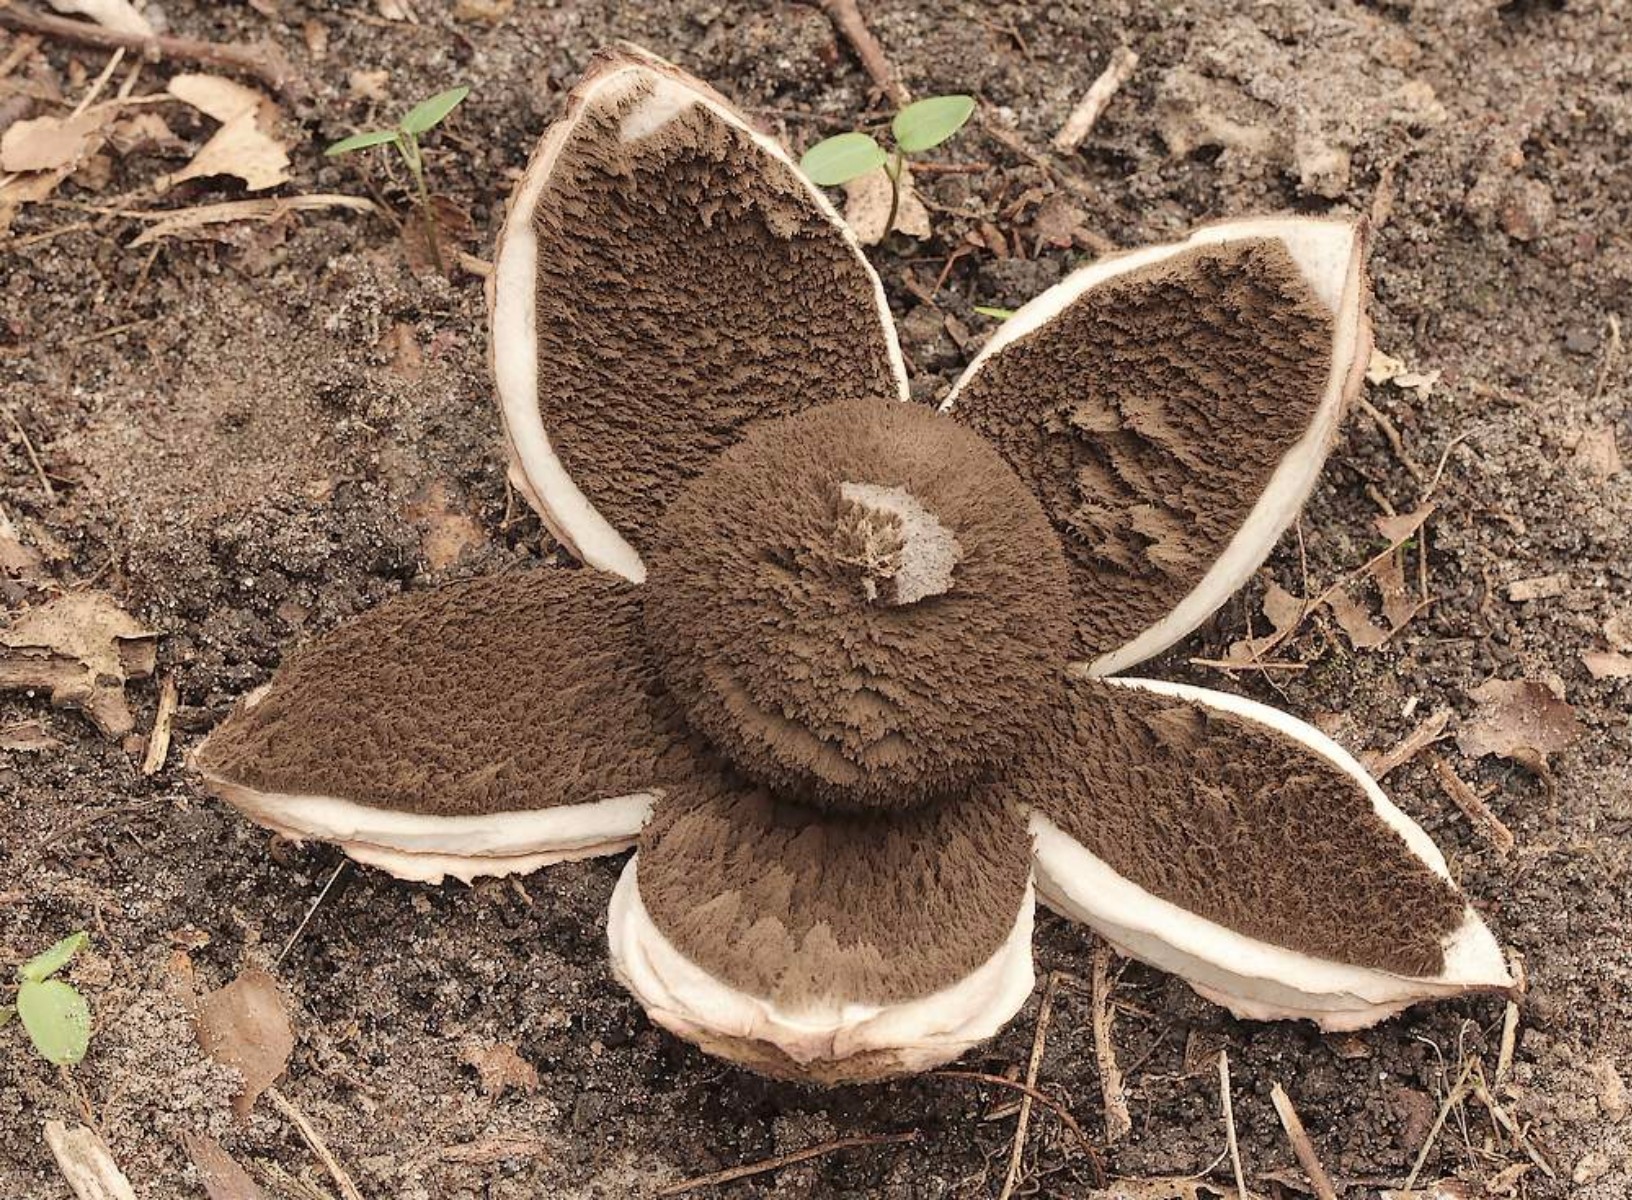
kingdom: Fungi
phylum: Basidiomycota
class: Agaricomycetes
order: Geastrales
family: Geastraceae
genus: Geastrum
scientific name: Geastrum melanocephalum
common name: håret stjernebold
